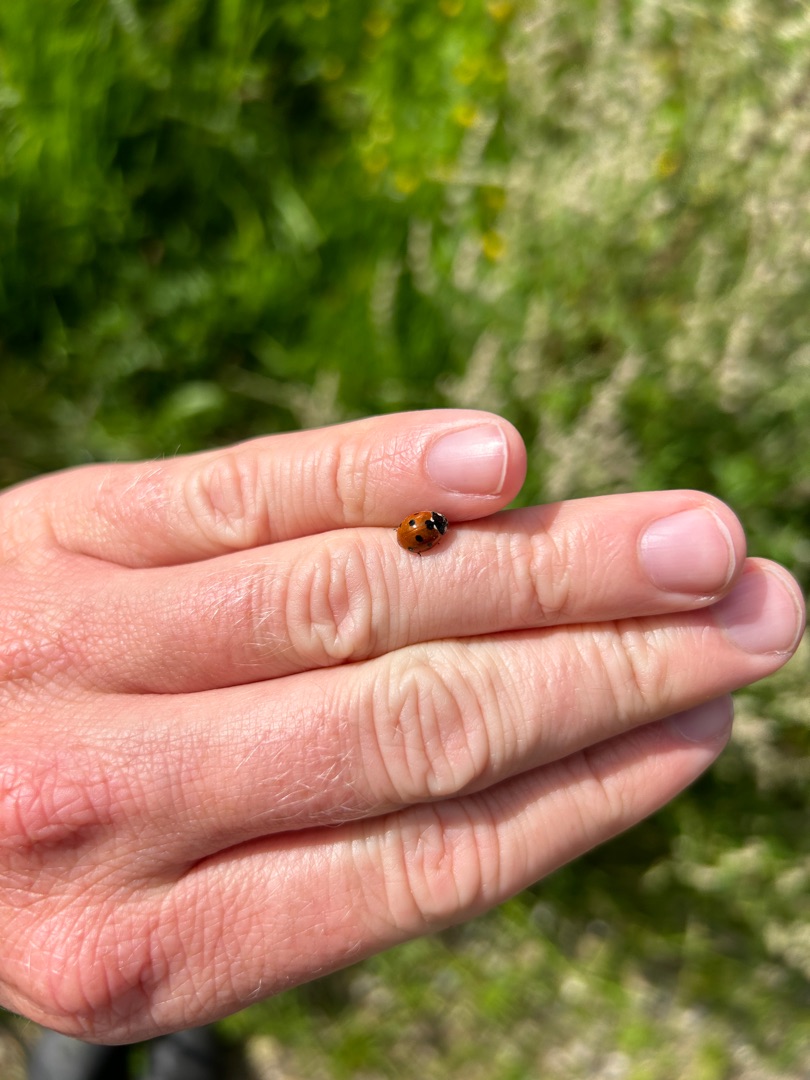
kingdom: Animalia
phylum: Arthropoda
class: Insecta
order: Coleoptera
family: Coccinellidae
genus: Coccinella
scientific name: Coccinella septempunctata
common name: Syvplettet mariehøne
